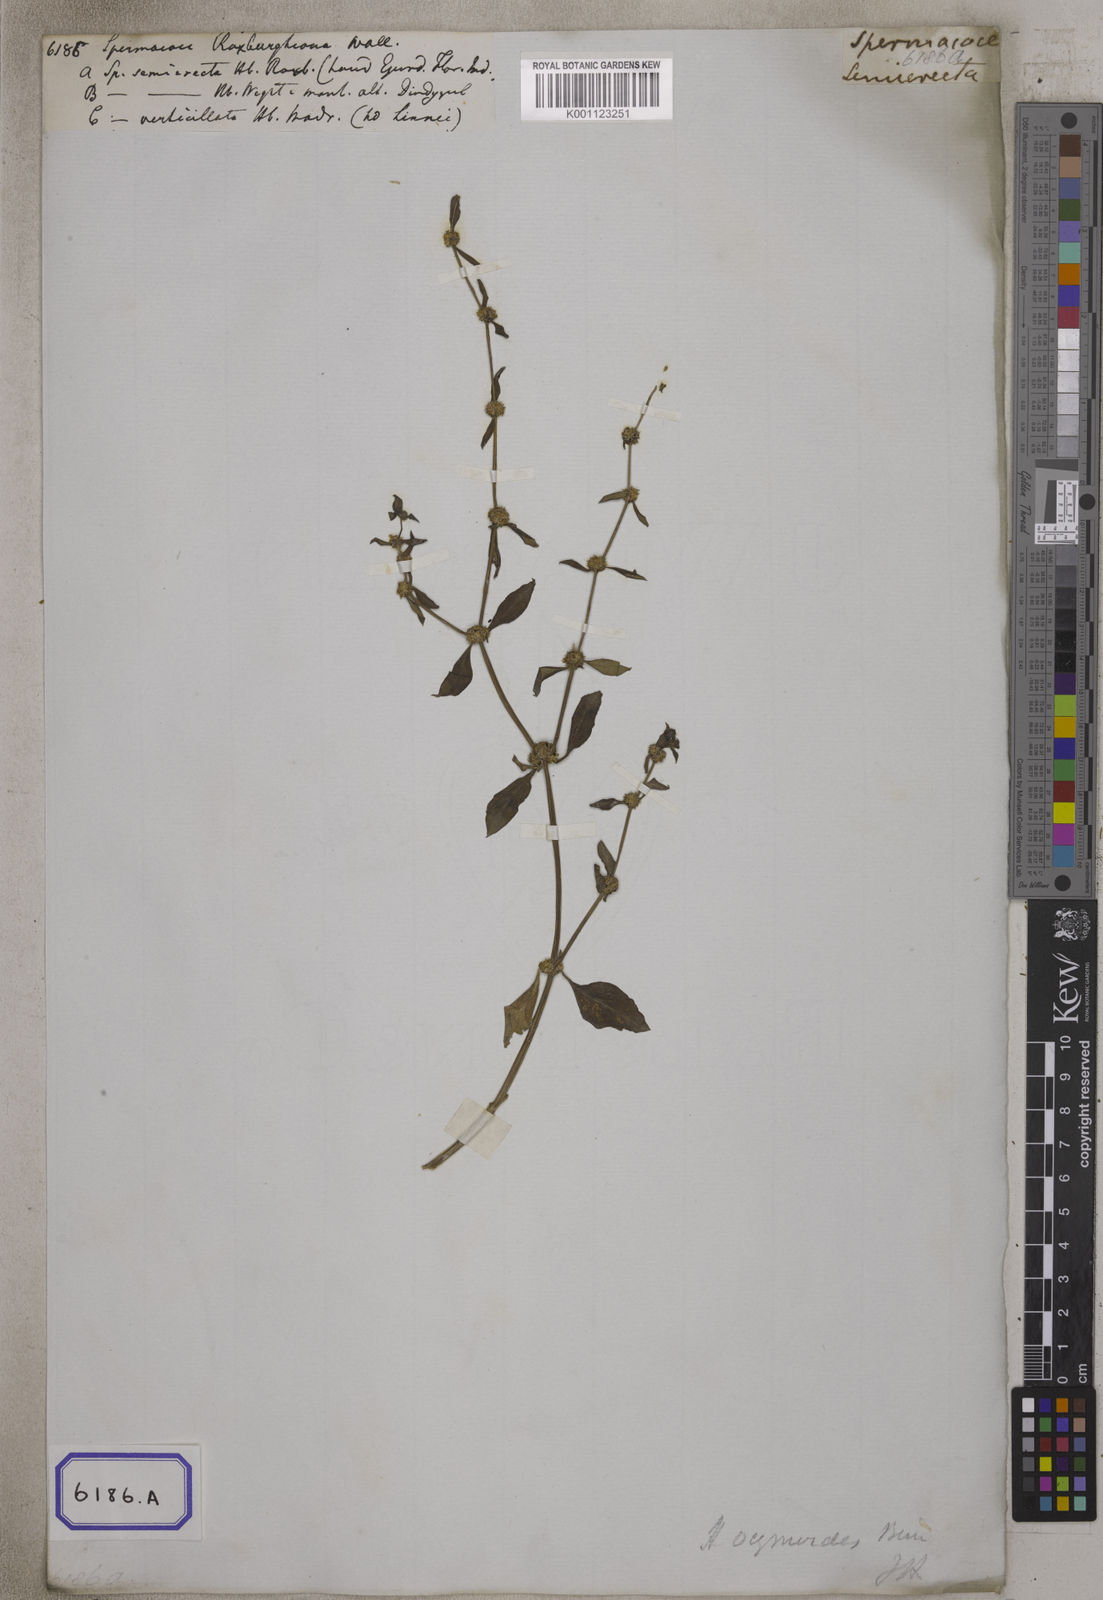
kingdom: Plantae
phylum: Tracheophyta
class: Magnoliopsida
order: Gentianales
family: Rubiaceae
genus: Spermacoce
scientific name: Spermacoce
